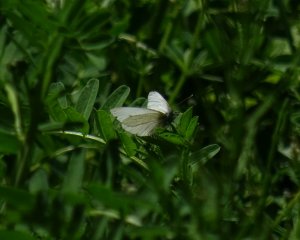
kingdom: Animalia
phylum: Arthropoda
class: Insecta
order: Lepidoptera
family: Pieridae
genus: Pieris
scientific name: Pieris
